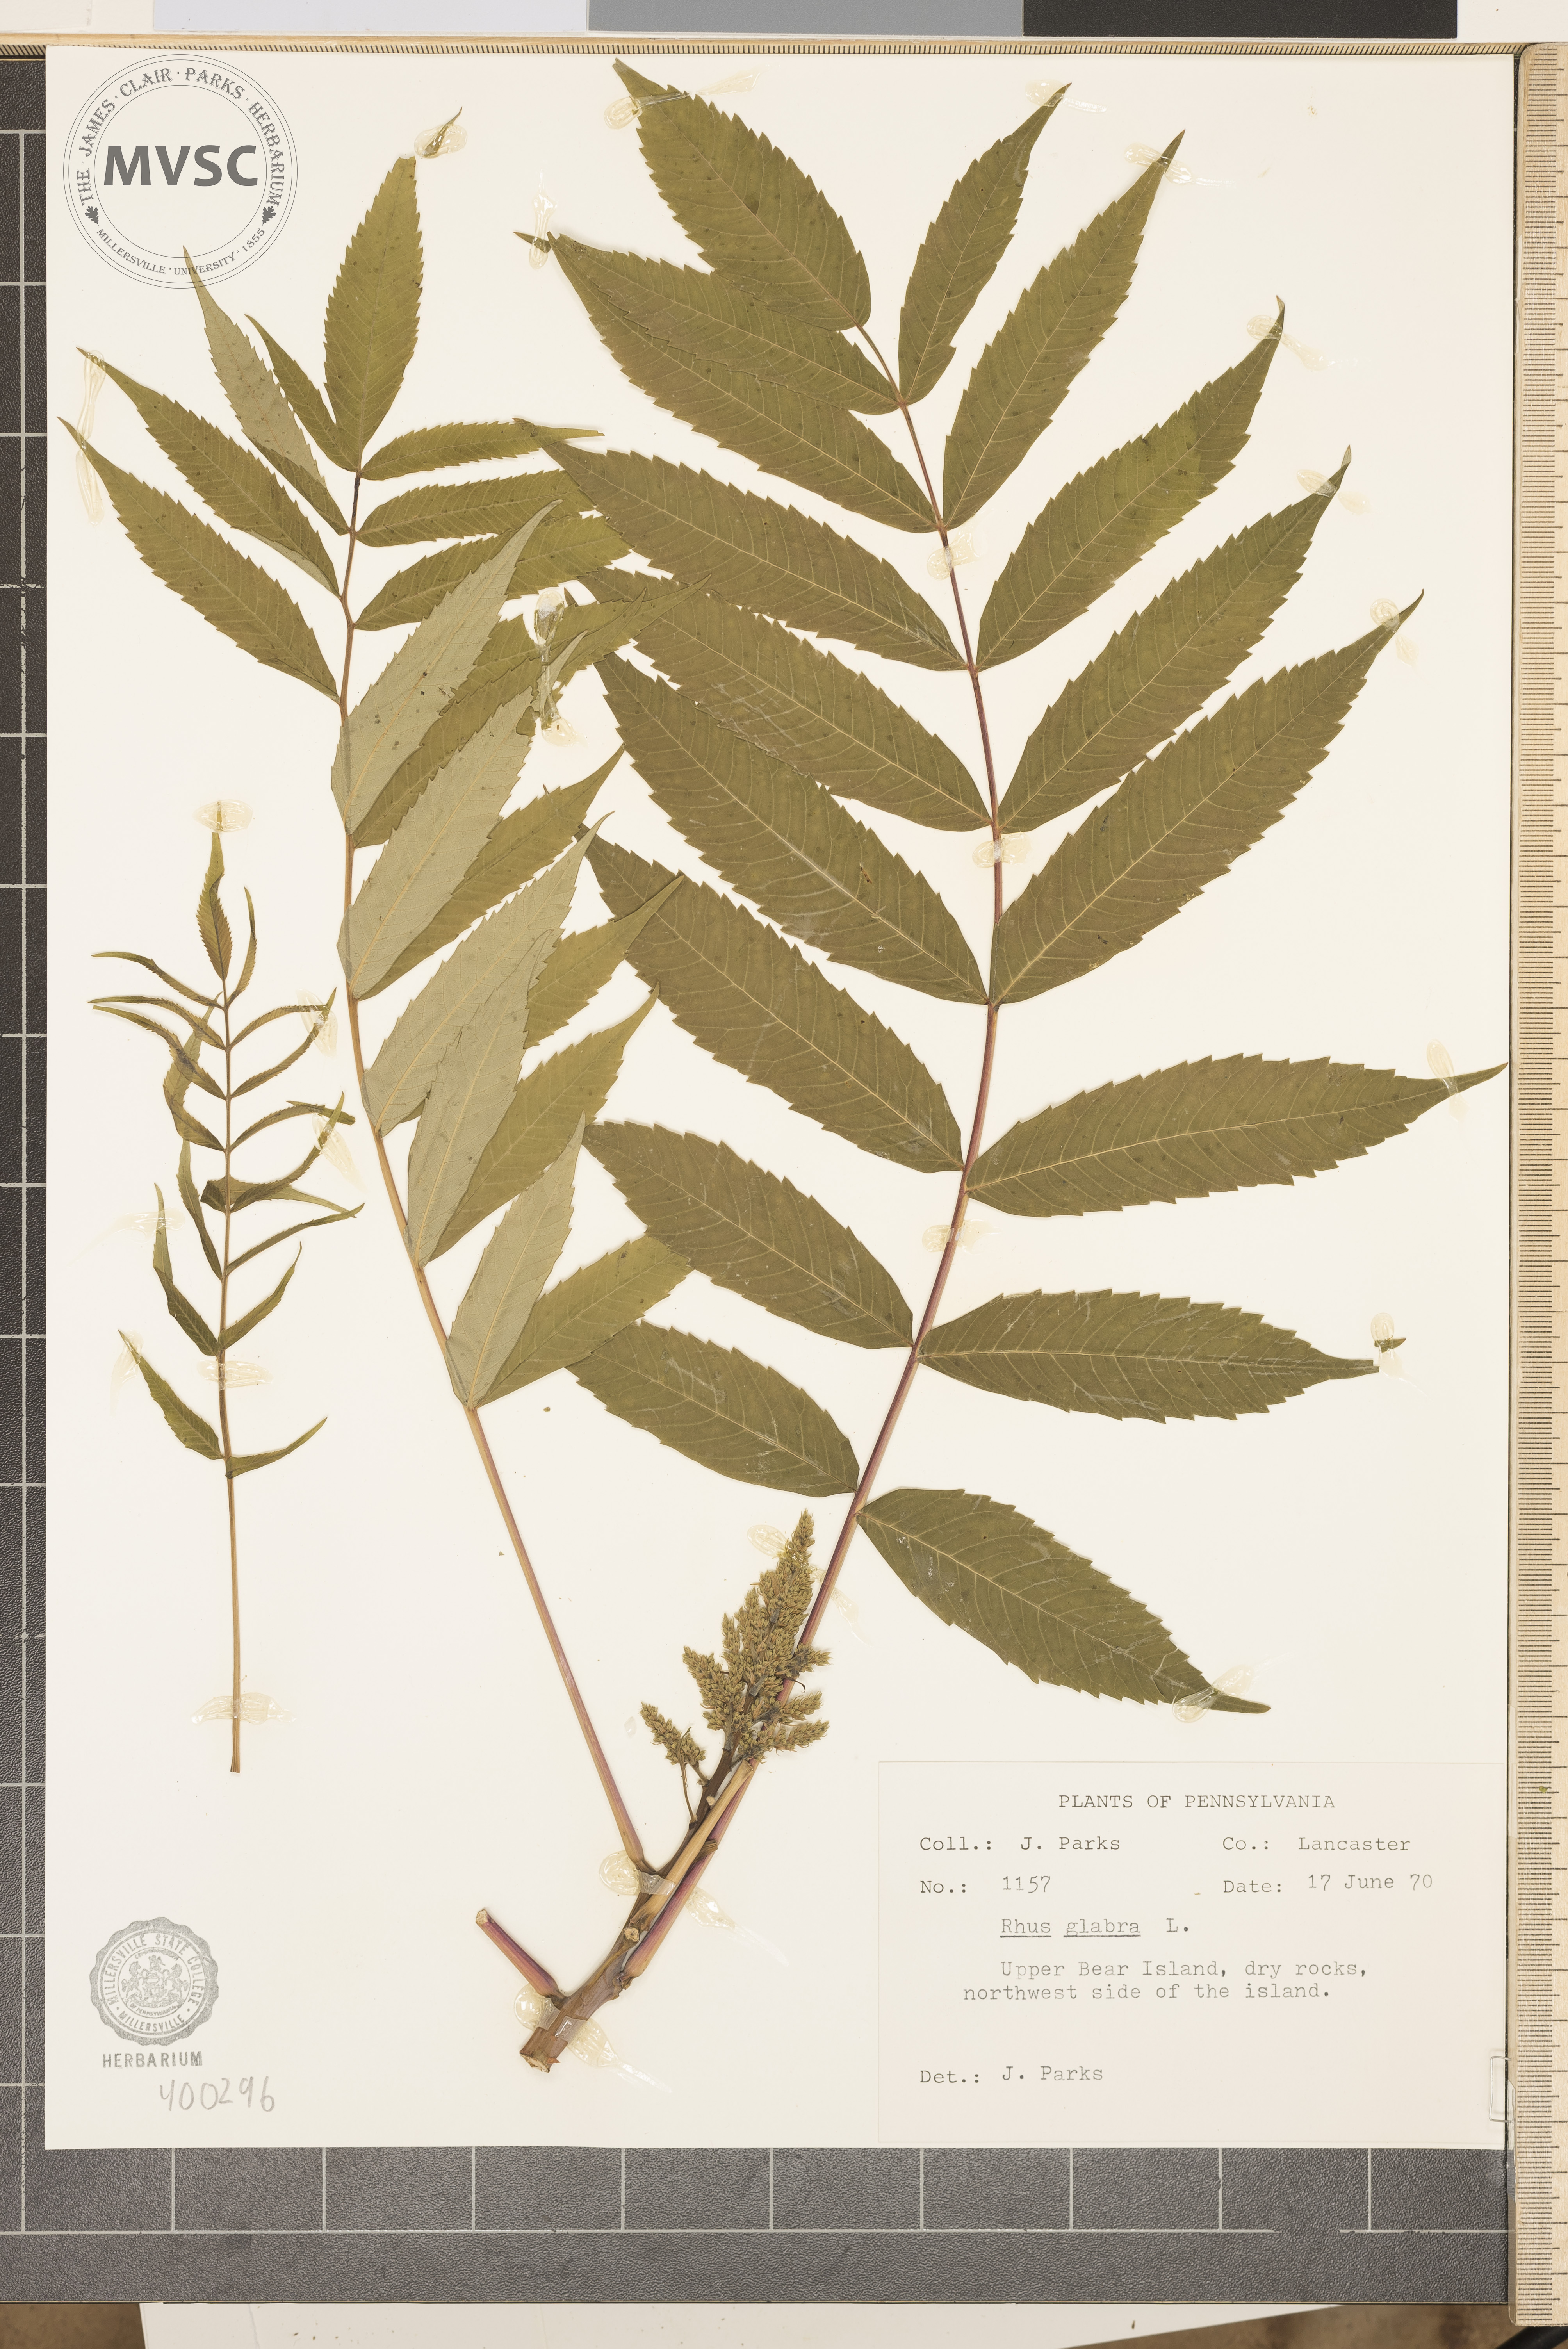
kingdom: Plantae
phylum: Tracheophyta
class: Magnoliopsida
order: Sapindales
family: Anacardiaceae
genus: Rhus
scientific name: Rhus glabra
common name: sumac
